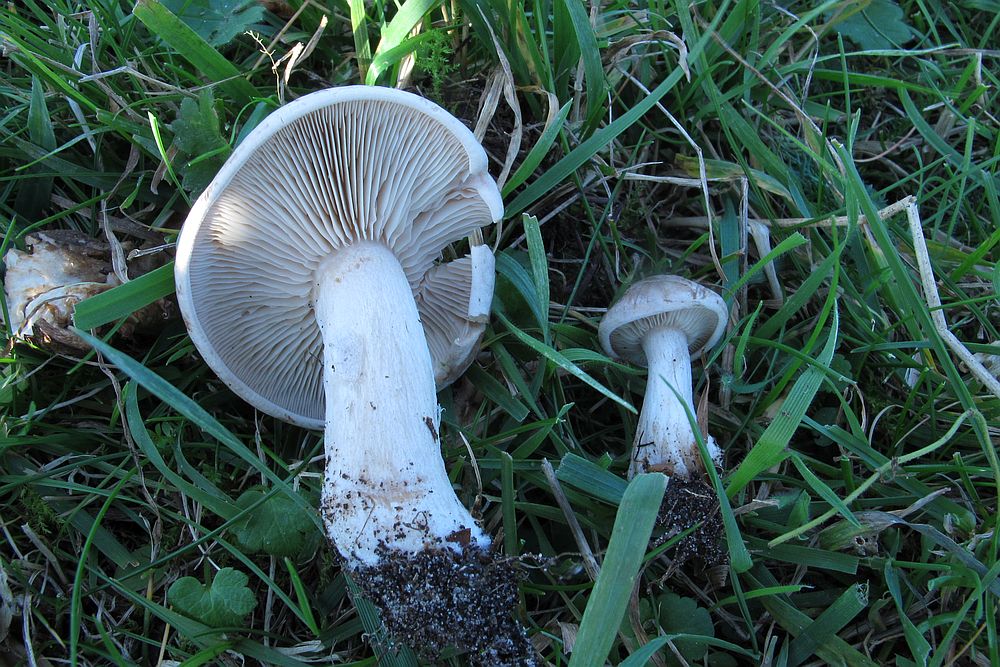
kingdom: Fungi
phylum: Basidiomycota
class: Agaricomycetes
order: Agaricales
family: Tricholomataceae
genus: Lepista
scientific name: Lepista panaeolus
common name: marmoreret hekseringshat
